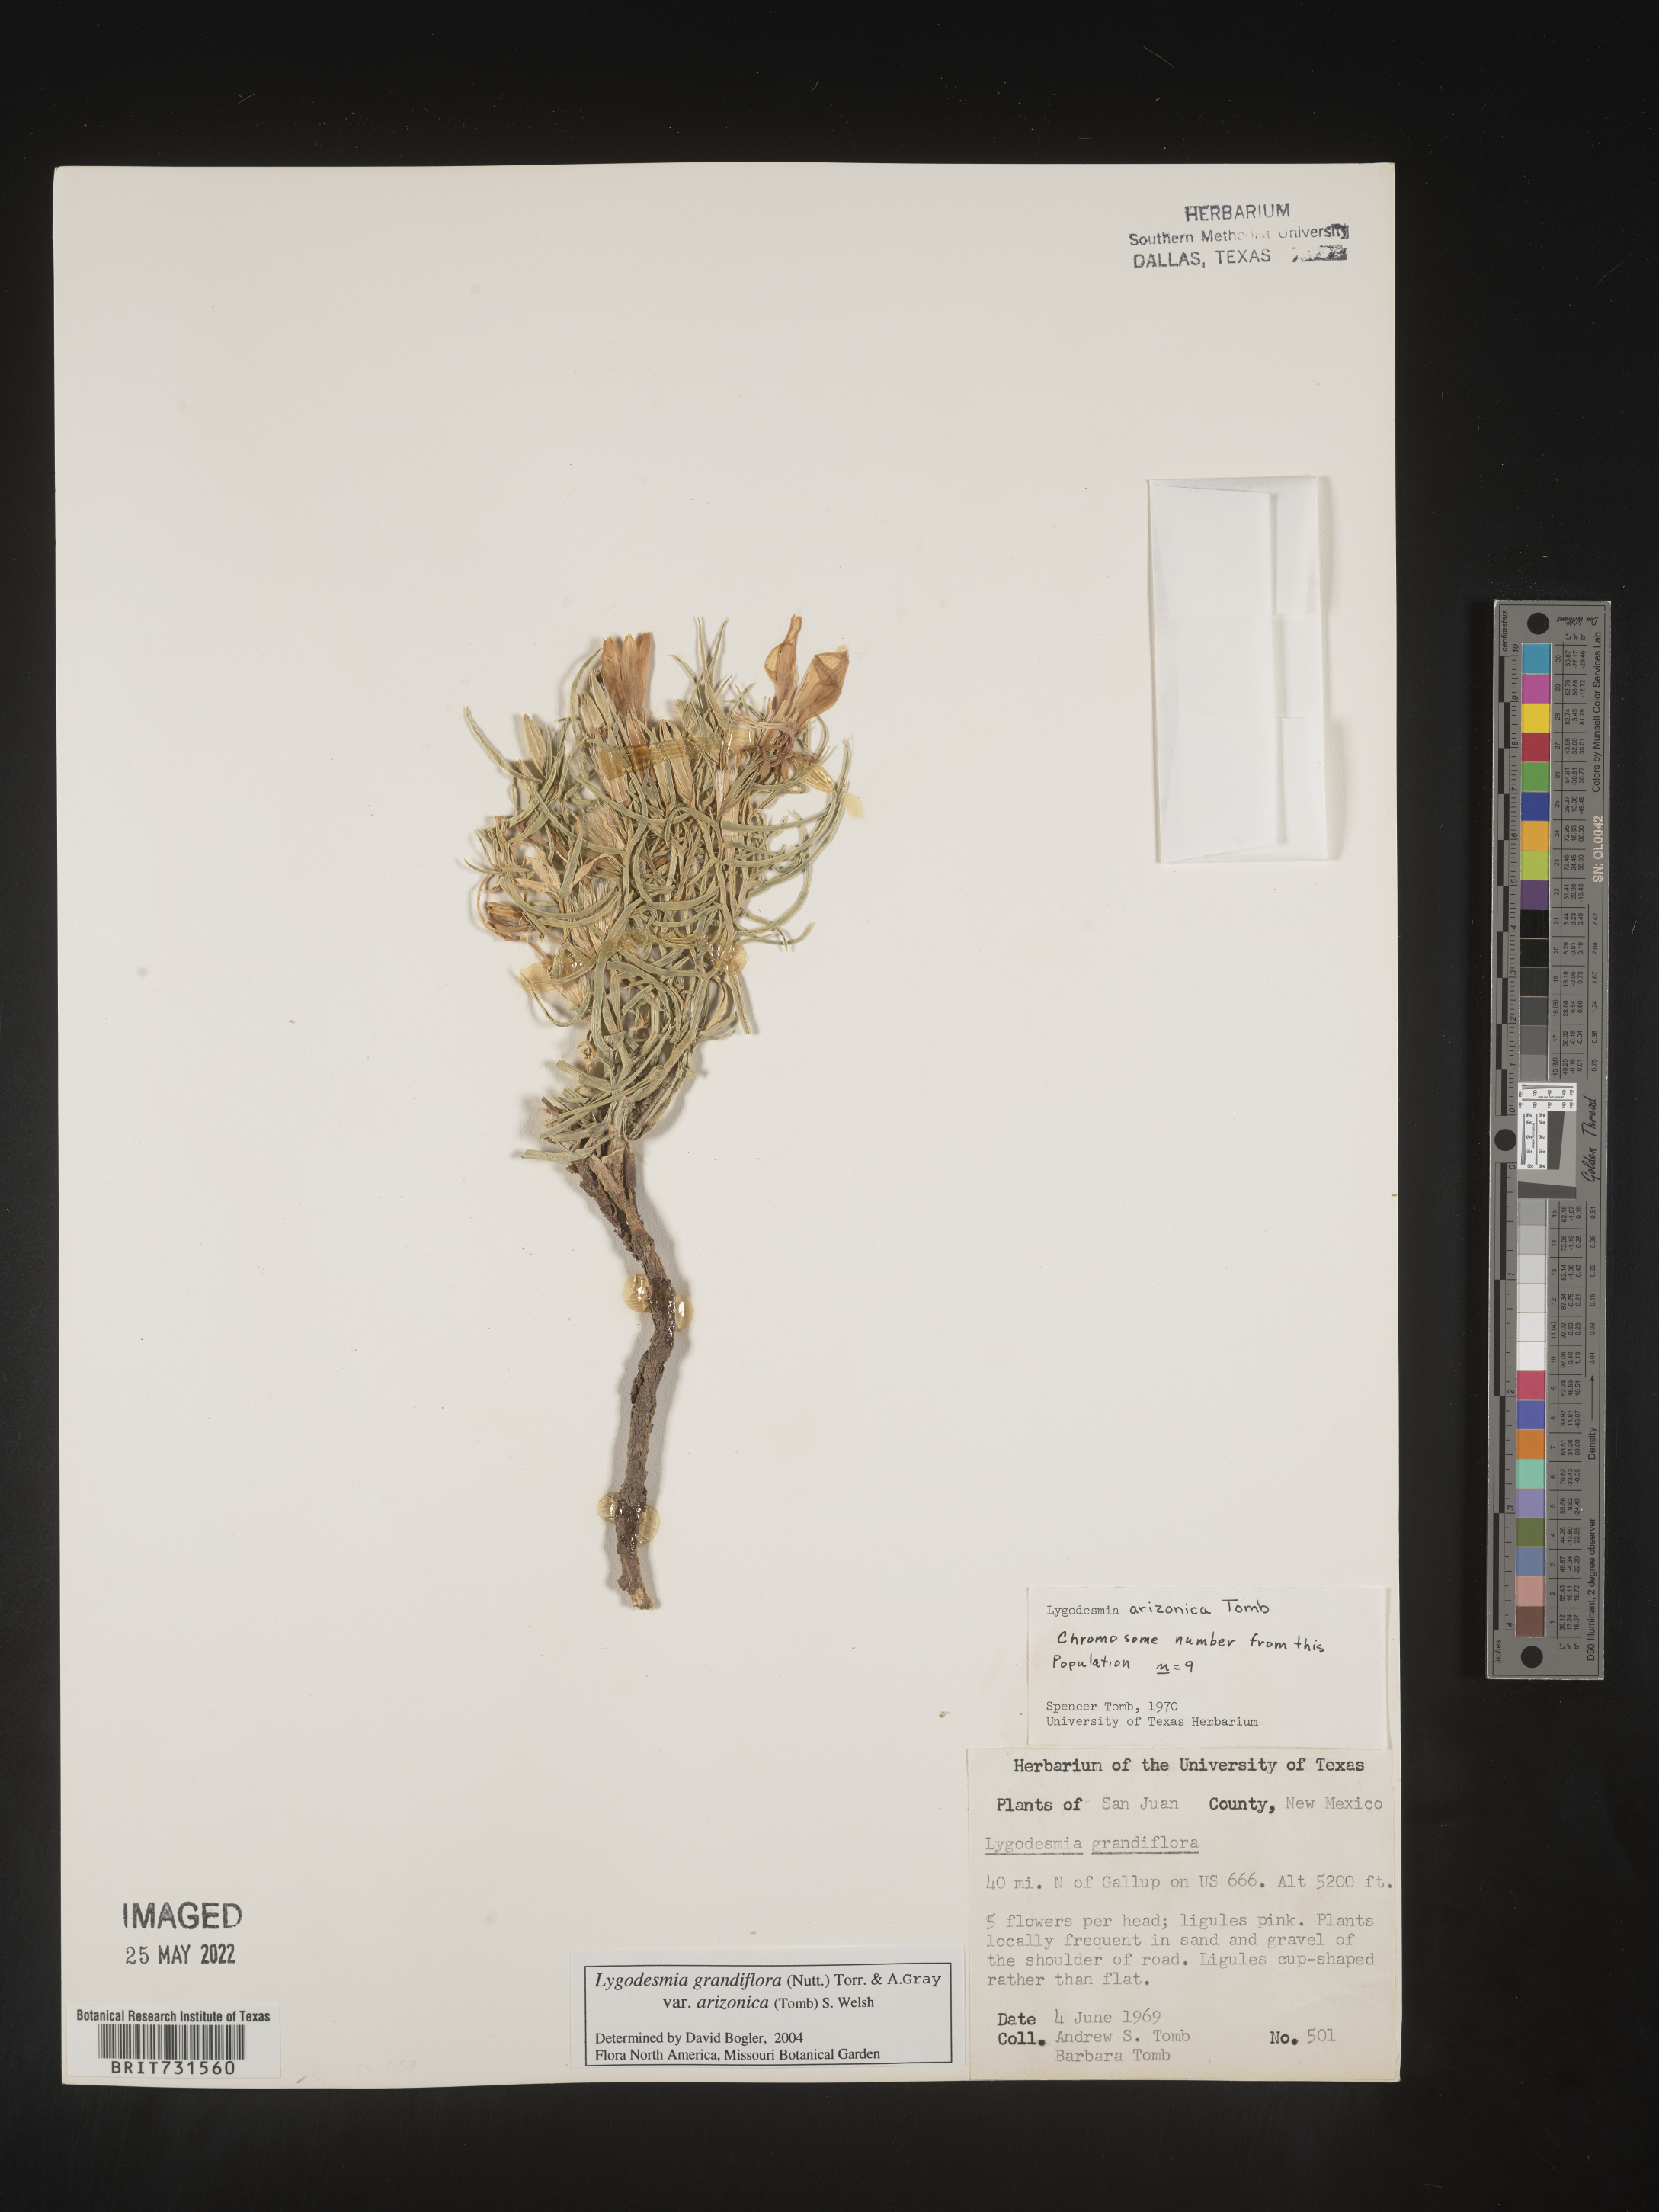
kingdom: Plantae
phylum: Tracheophyta
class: Magnoliopsida
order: Asterales
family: Asteraceae
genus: Lygodesmia
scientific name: Lygodesmia grandiflora
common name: Showy rush-pink
